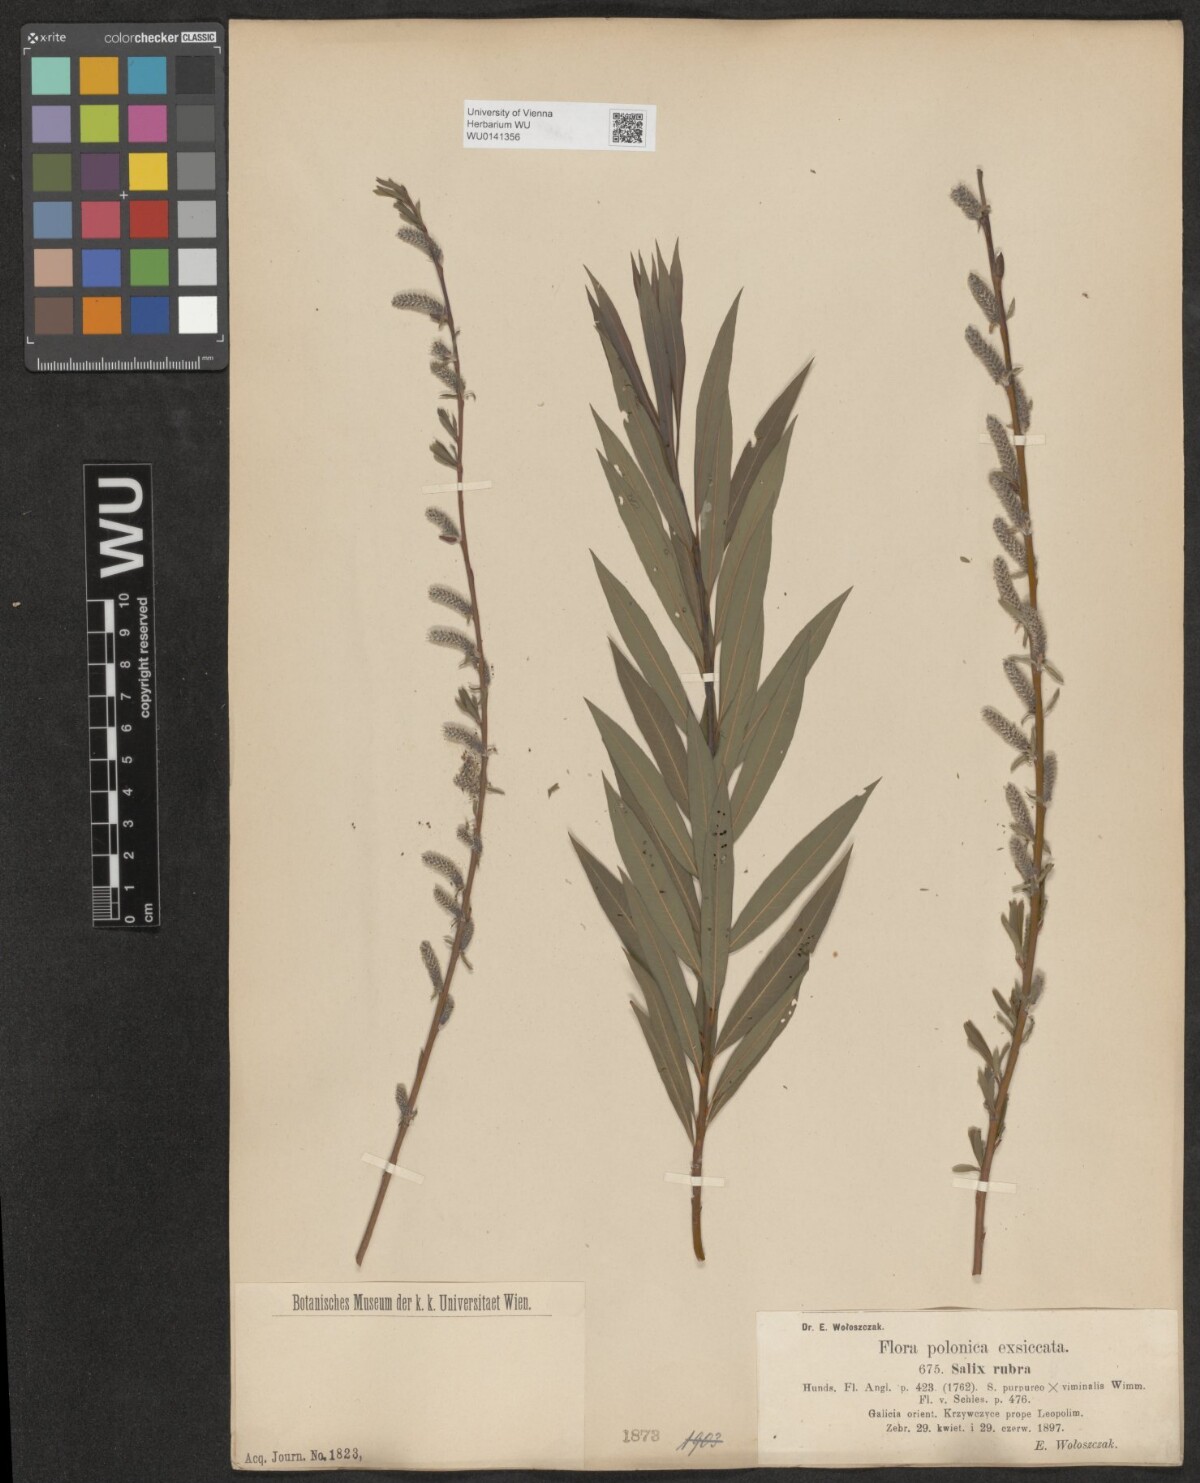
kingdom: Plantae
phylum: Tracheophyta
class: Magnoliopsida
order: Malpighiales
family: Salicaceae
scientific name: Salicaceae
